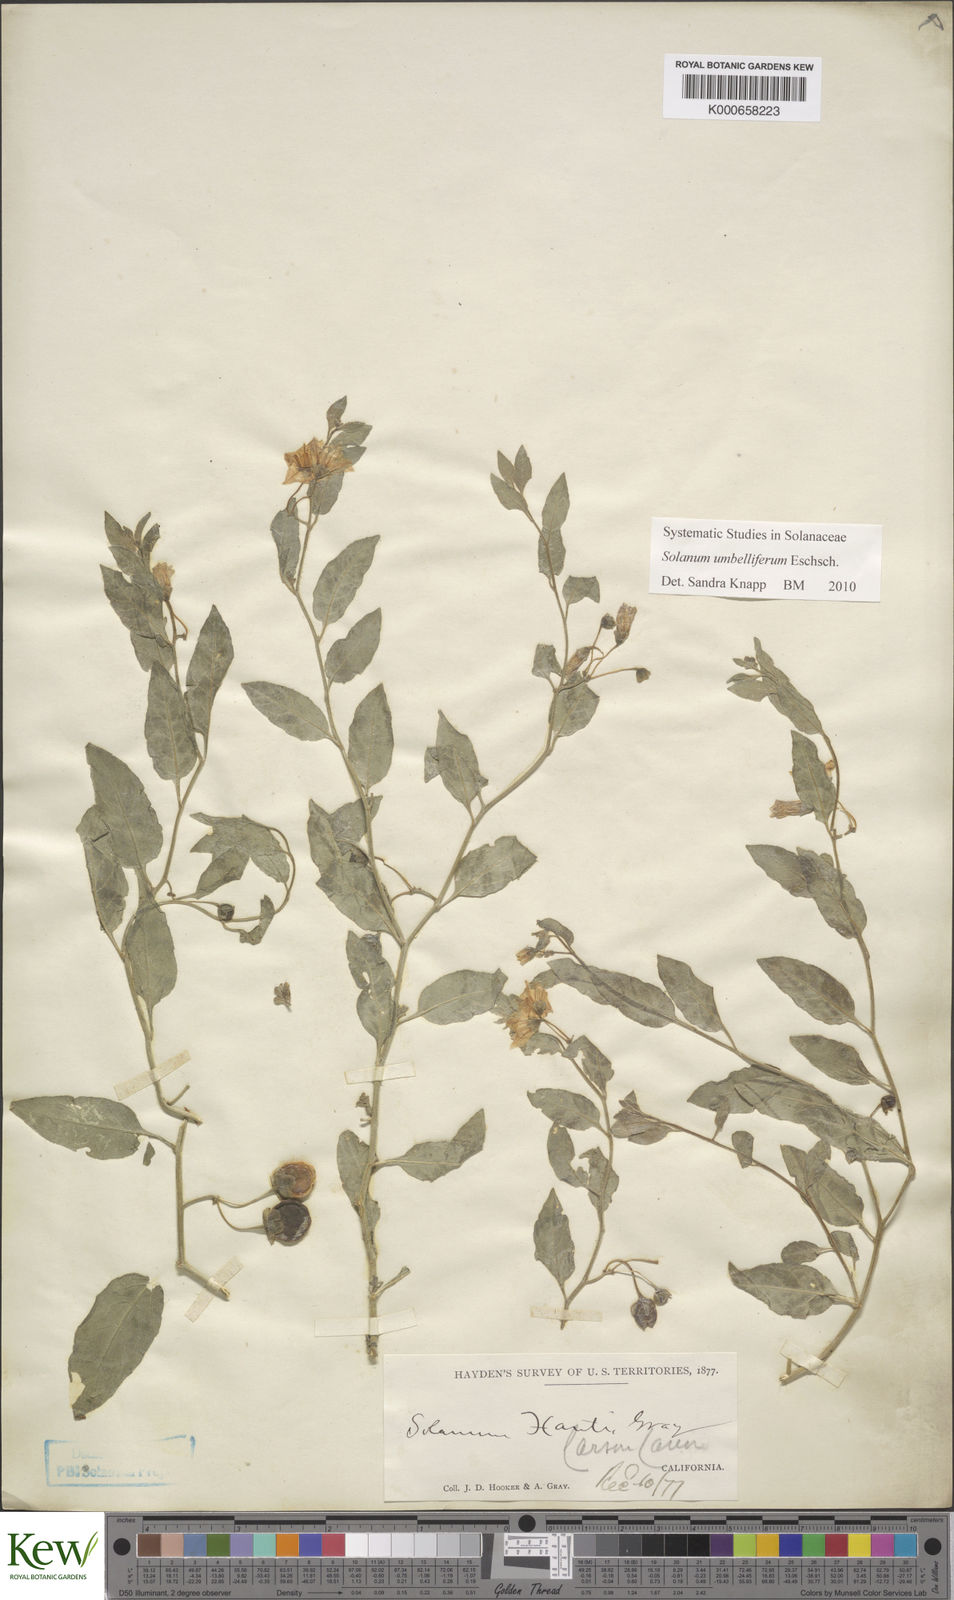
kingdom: Plantae
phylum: Tracheophyta
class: Magnoliopsida
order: Solanales
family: Solanaceae
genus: Solanum
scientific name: Solanum umbelliferum
